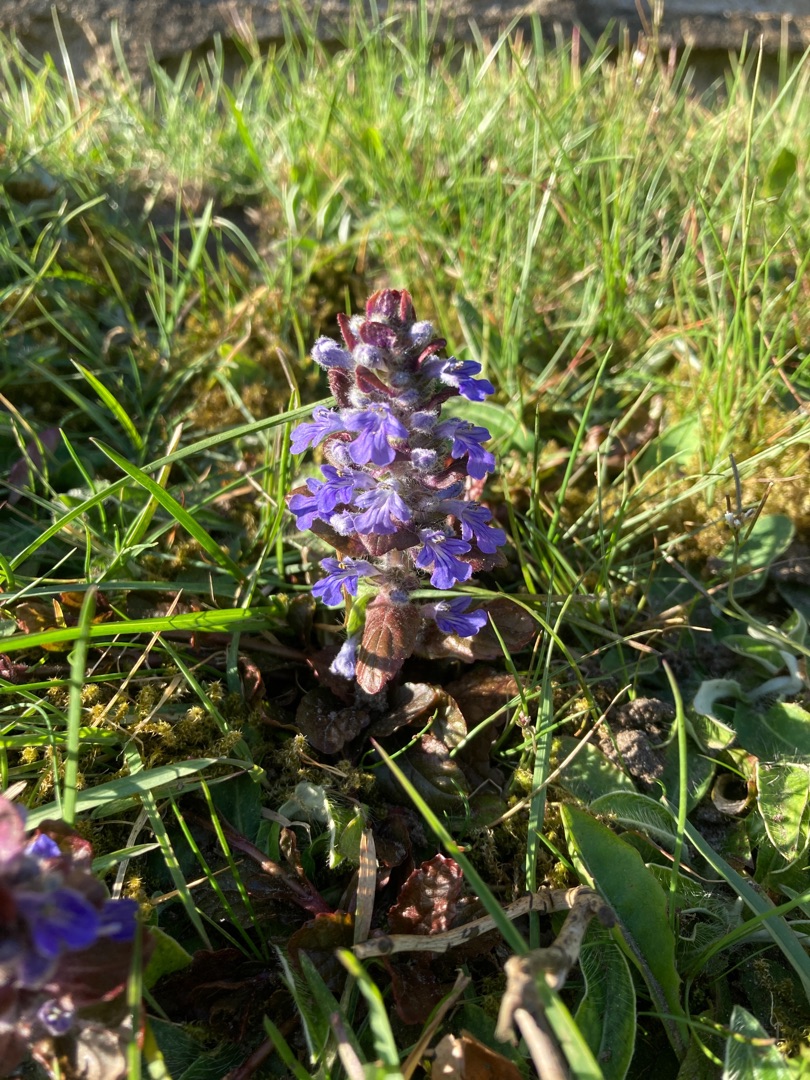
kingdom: Plantae
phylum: Tracheophyta
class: Magnoliopsida
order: Lamiales
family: Lamiaceae
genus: Ajuga
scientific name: Ajuga reptans
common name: Krybende læbeløs
